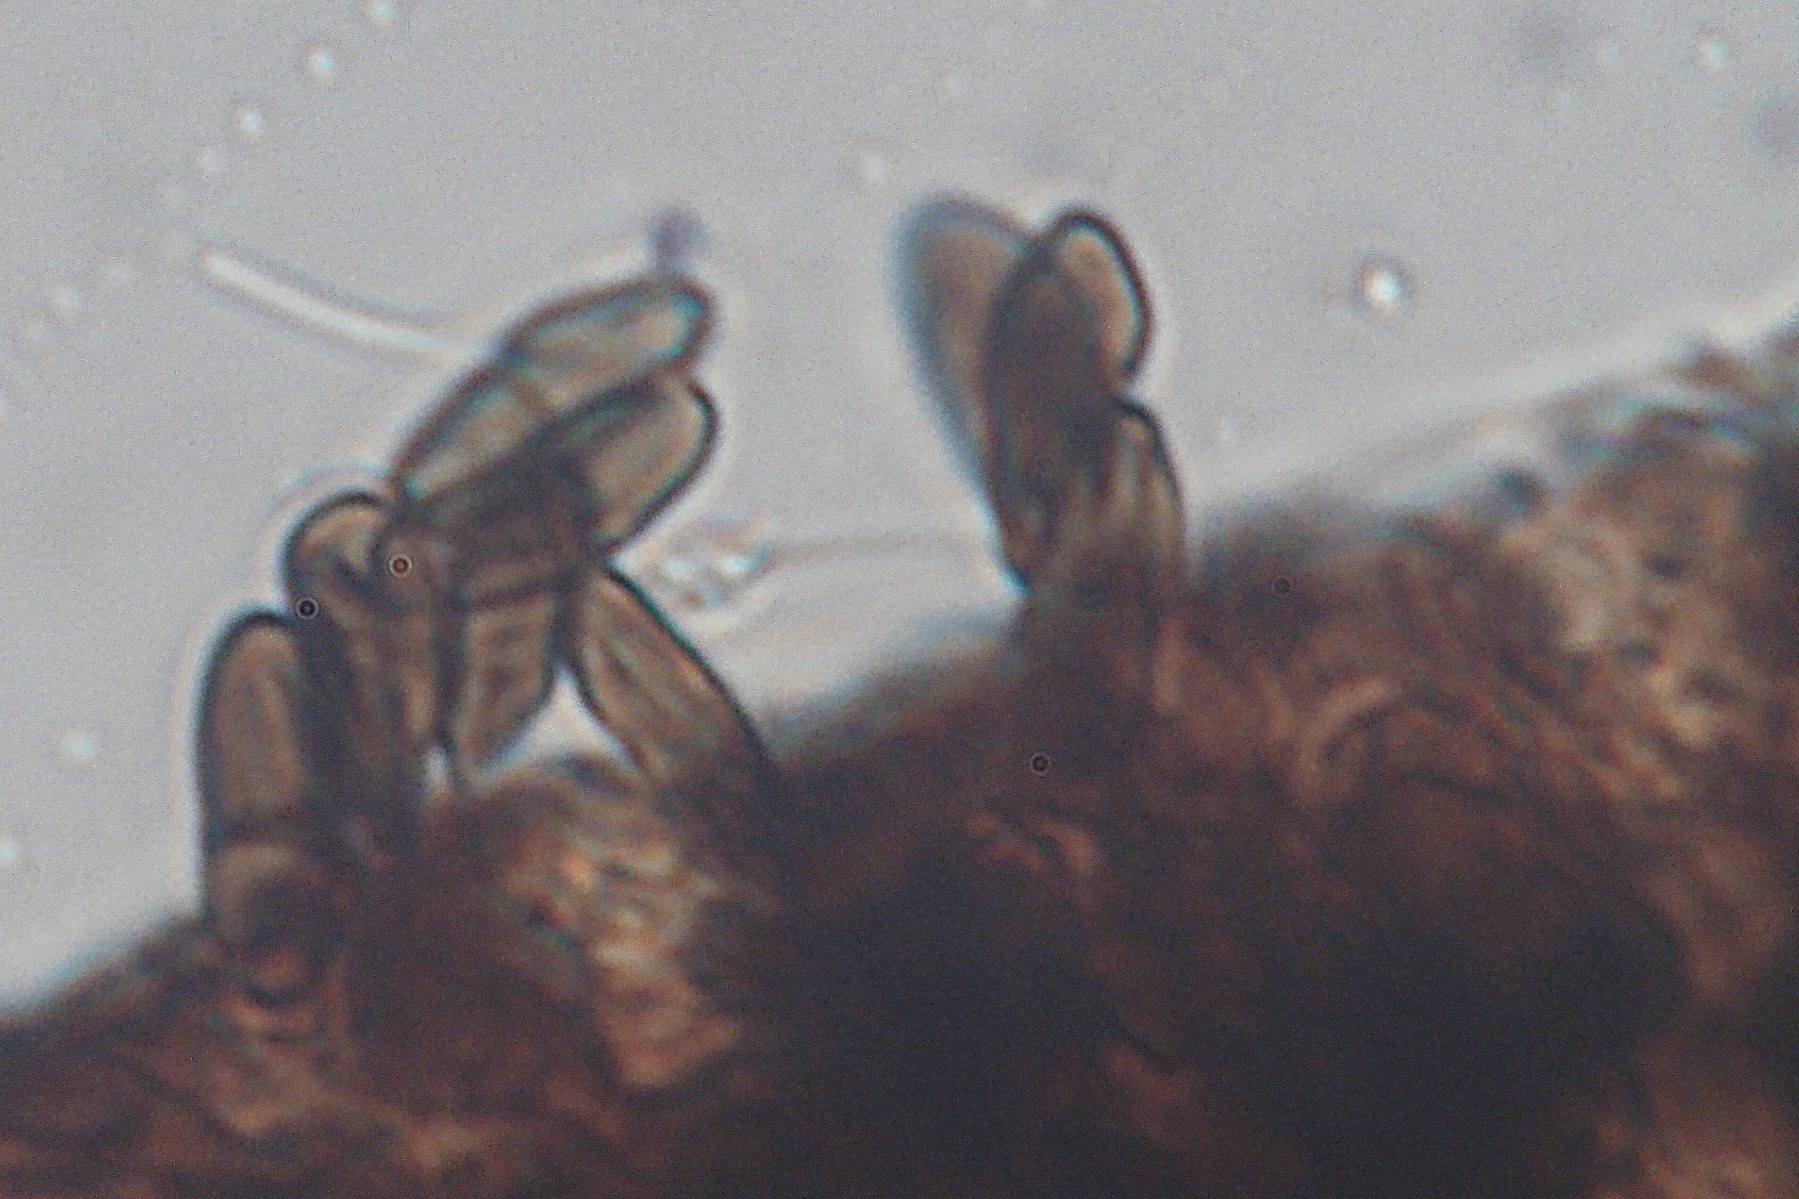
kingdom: Fungi
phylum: Ascomycota
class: Eurotiomycetes
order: Mycocaliciales
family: Mycocaliciaceae
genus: Phaeocalicium
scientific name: Phaeocalicium populneum
